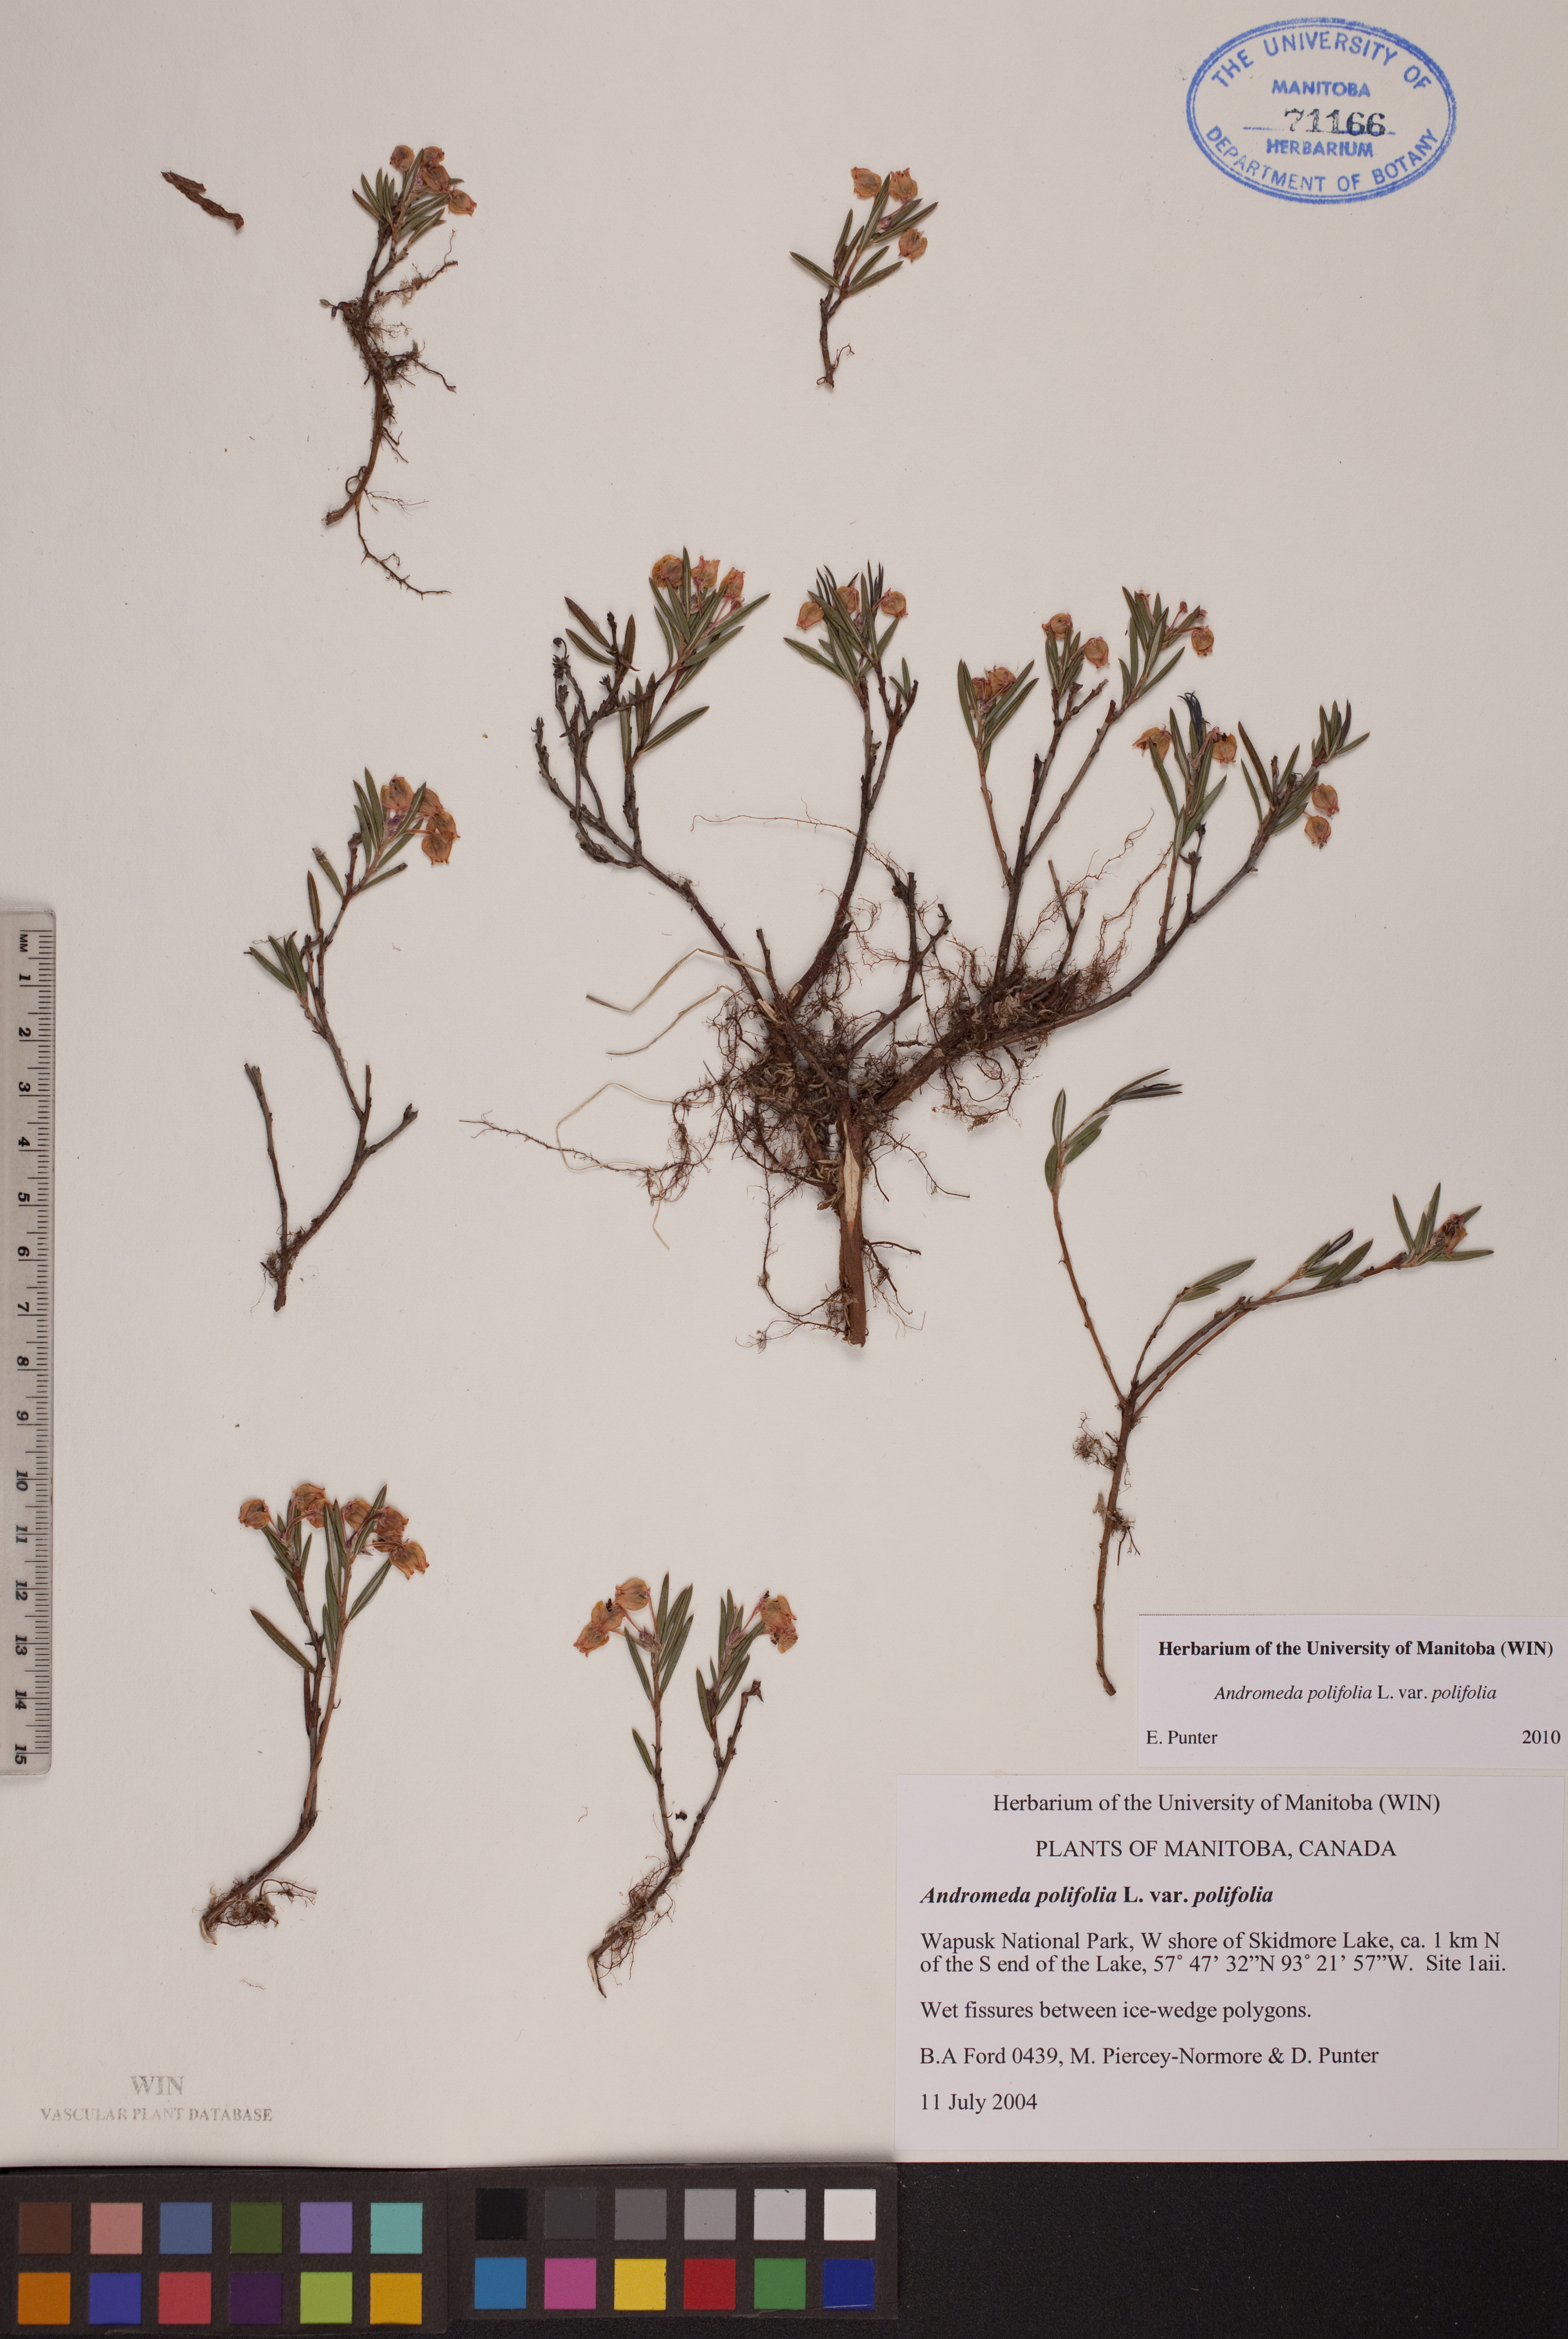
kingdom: Plantae
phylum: Tracheophyta
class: Magnoliopsida
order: Ericales
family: Ericaceae
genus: Andromeda
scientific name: Andromeda polifolia
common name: Bog-rosemary
